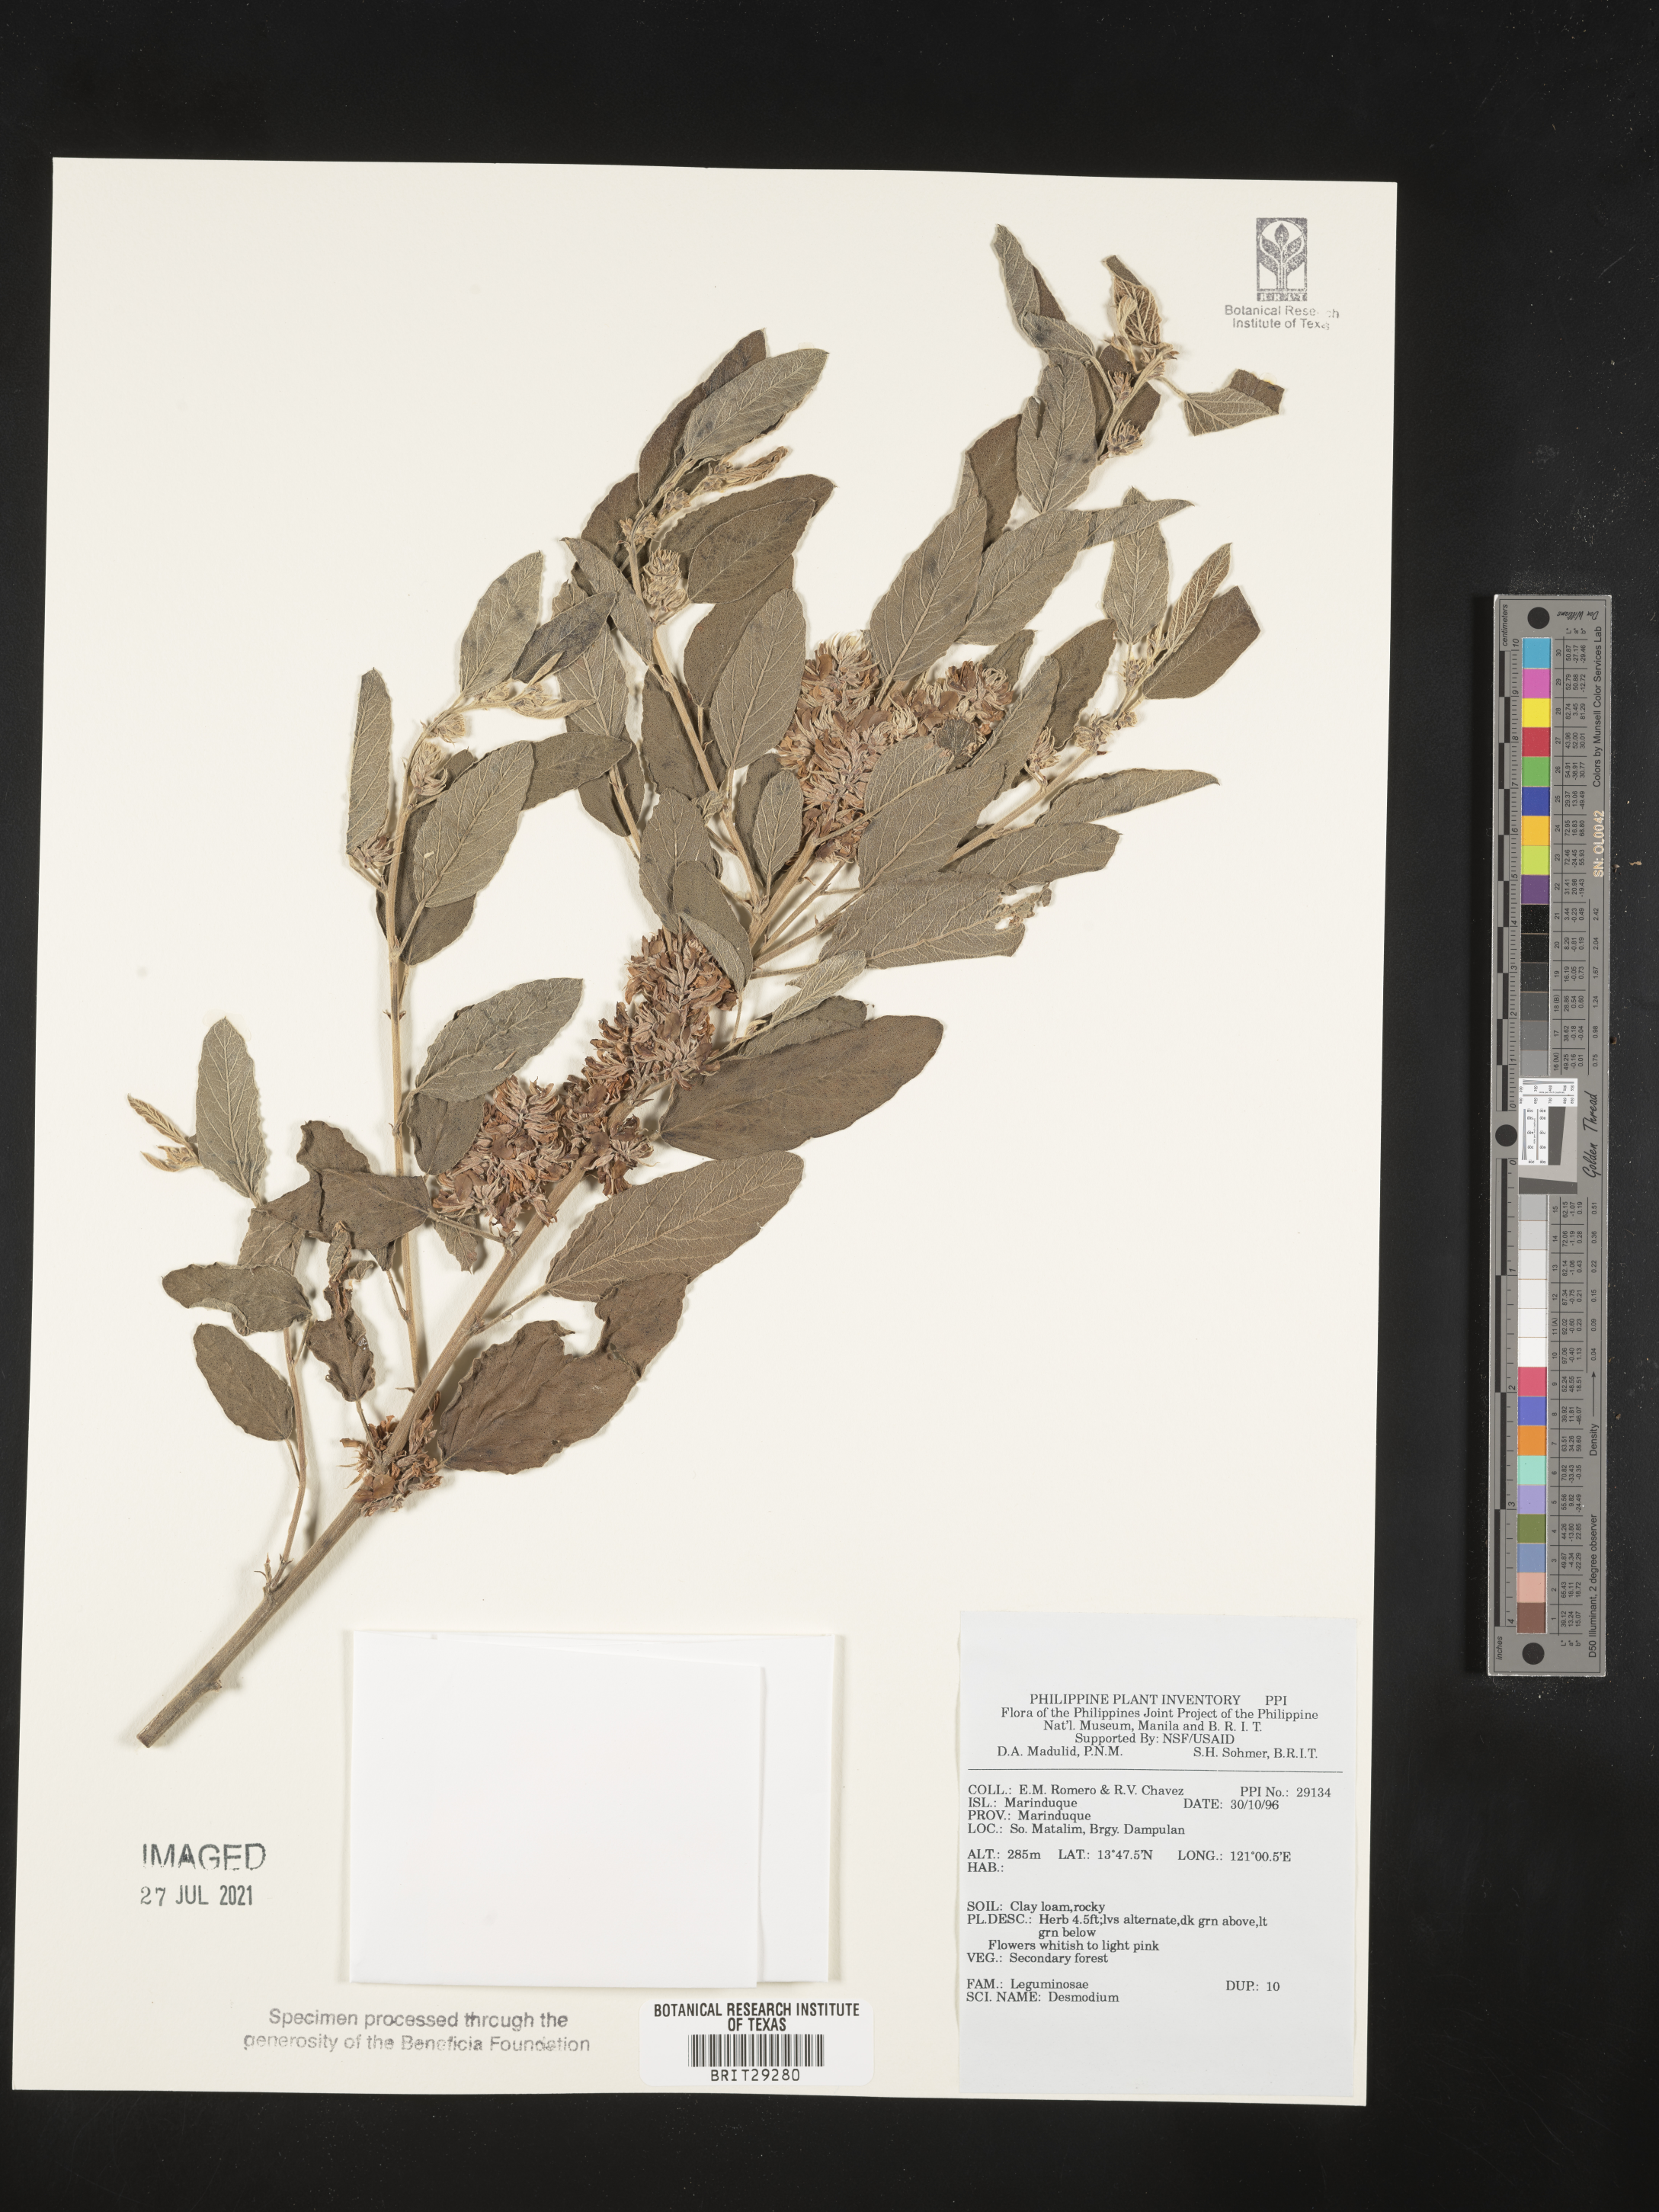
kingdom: Plantae
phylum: Tracheophyta
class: Magnoliopsida
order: Fabales
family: Fabaceae
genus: Desmodium
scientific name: Desmodium
